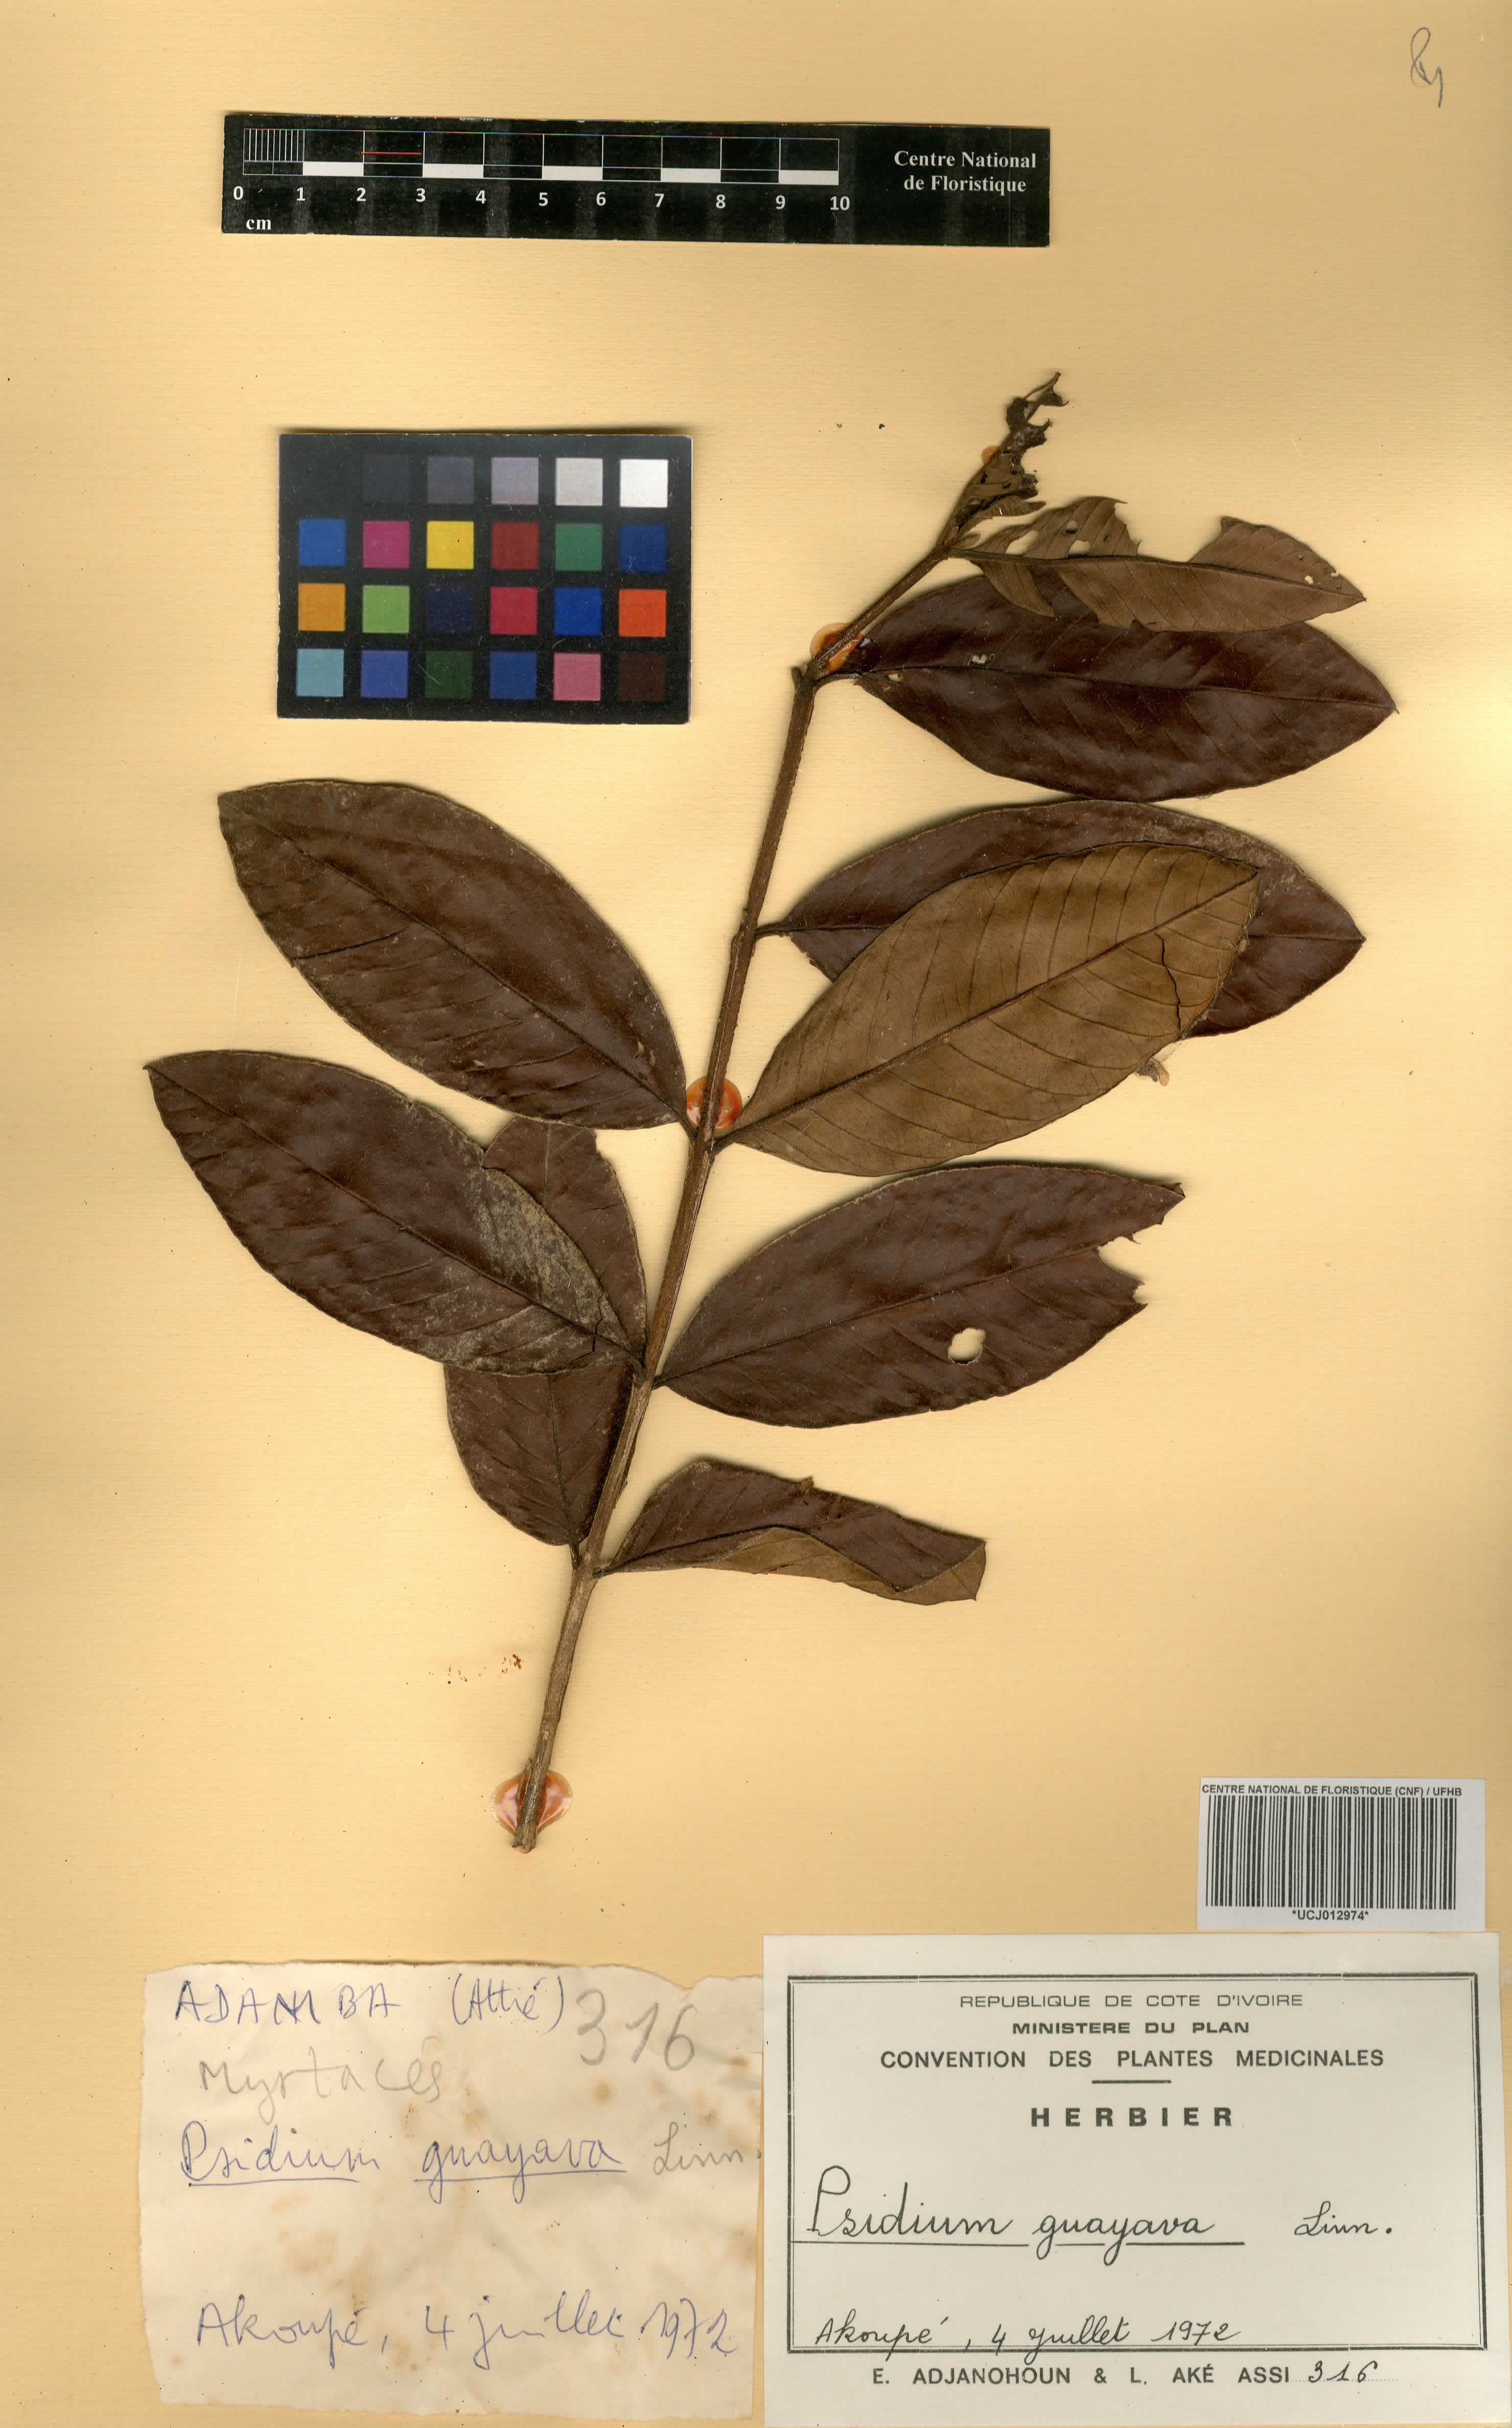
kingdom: Plantae
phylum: Tracheophyta
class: Magnoliopsida
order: Myrtales
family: Myrtaceae
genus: Psidium
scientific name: Psidium guajava
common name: Guava
